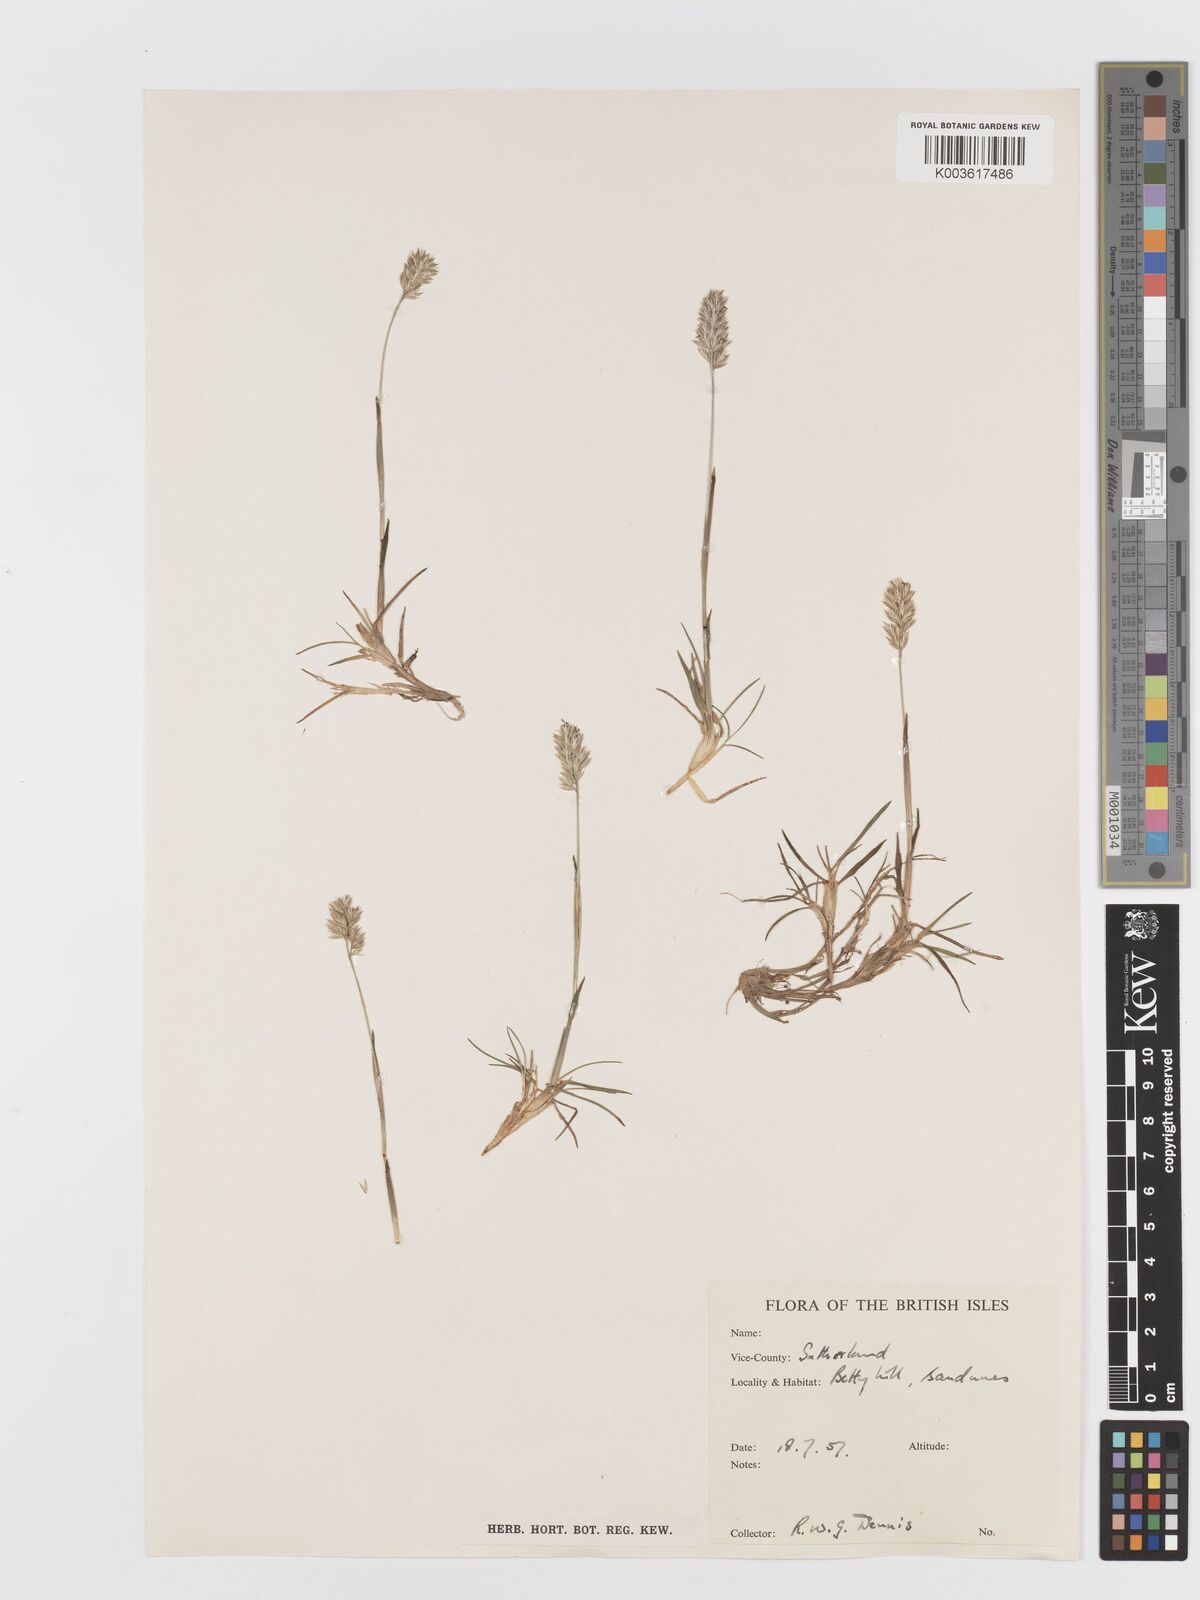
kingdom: Plantae
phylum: Tracheophyta
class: Liliopsida
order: Poales
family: Poaceae
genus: Koeleria
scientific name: Koeleria
